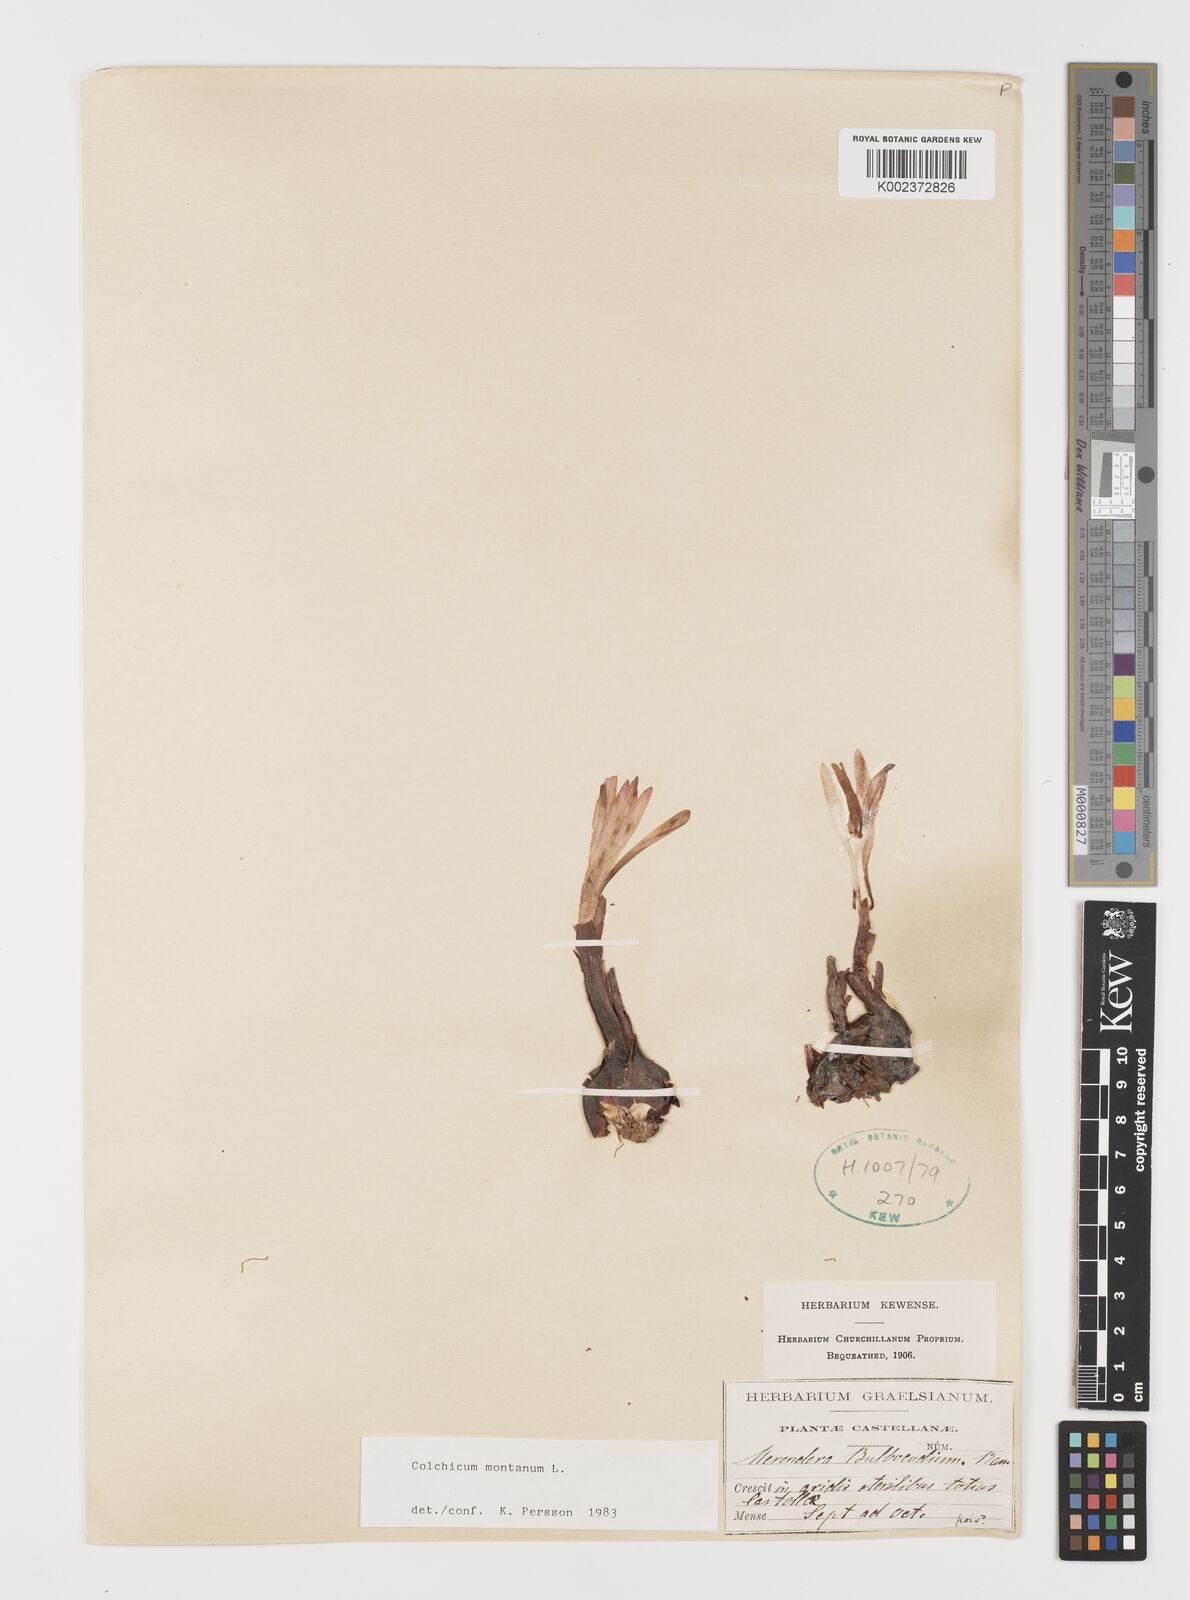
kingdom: Plantae
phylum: Tracheophyta
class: Liliopsida
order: Liliales
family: Colchicaceae
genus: Colchicum
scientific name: Colchicum montanum
